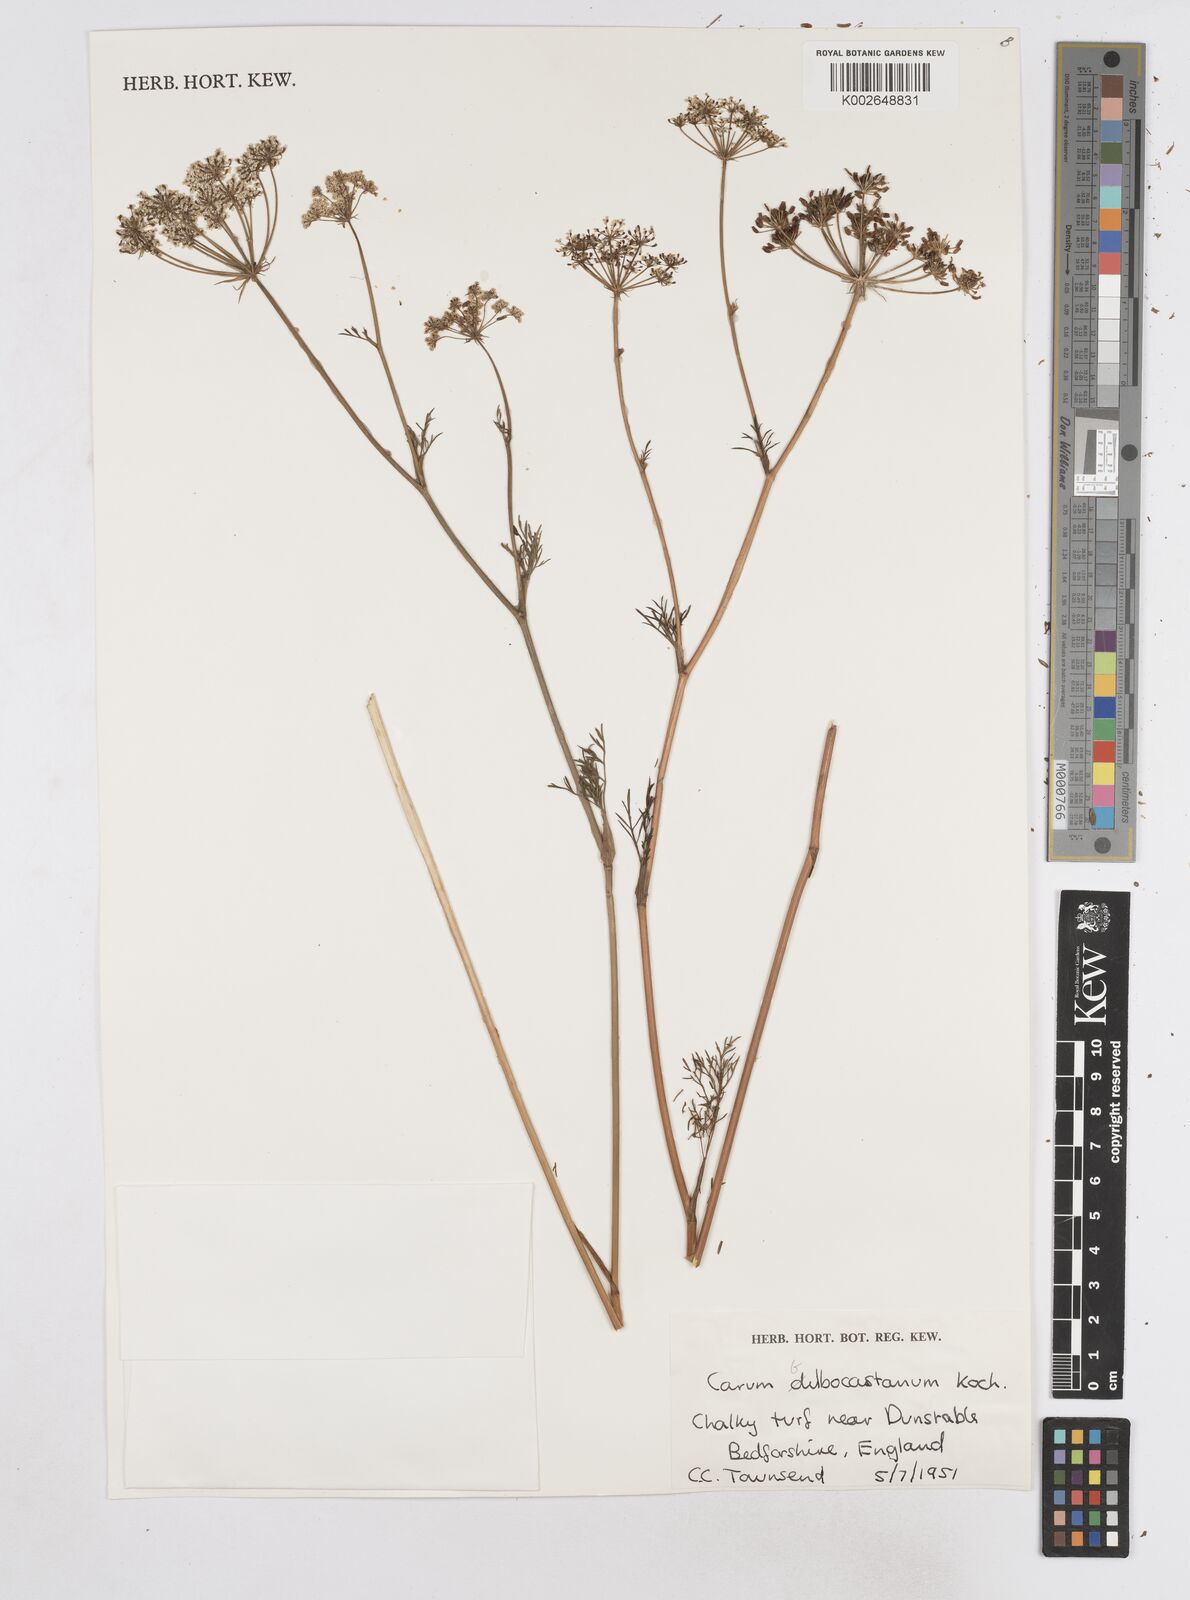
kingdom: Plantae
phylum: Tracheophyta
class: Magnoliopsida
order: Apiales
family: Apiaceae
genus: Bunium
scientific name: Bunium bulbocastanum
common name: Great pignut
